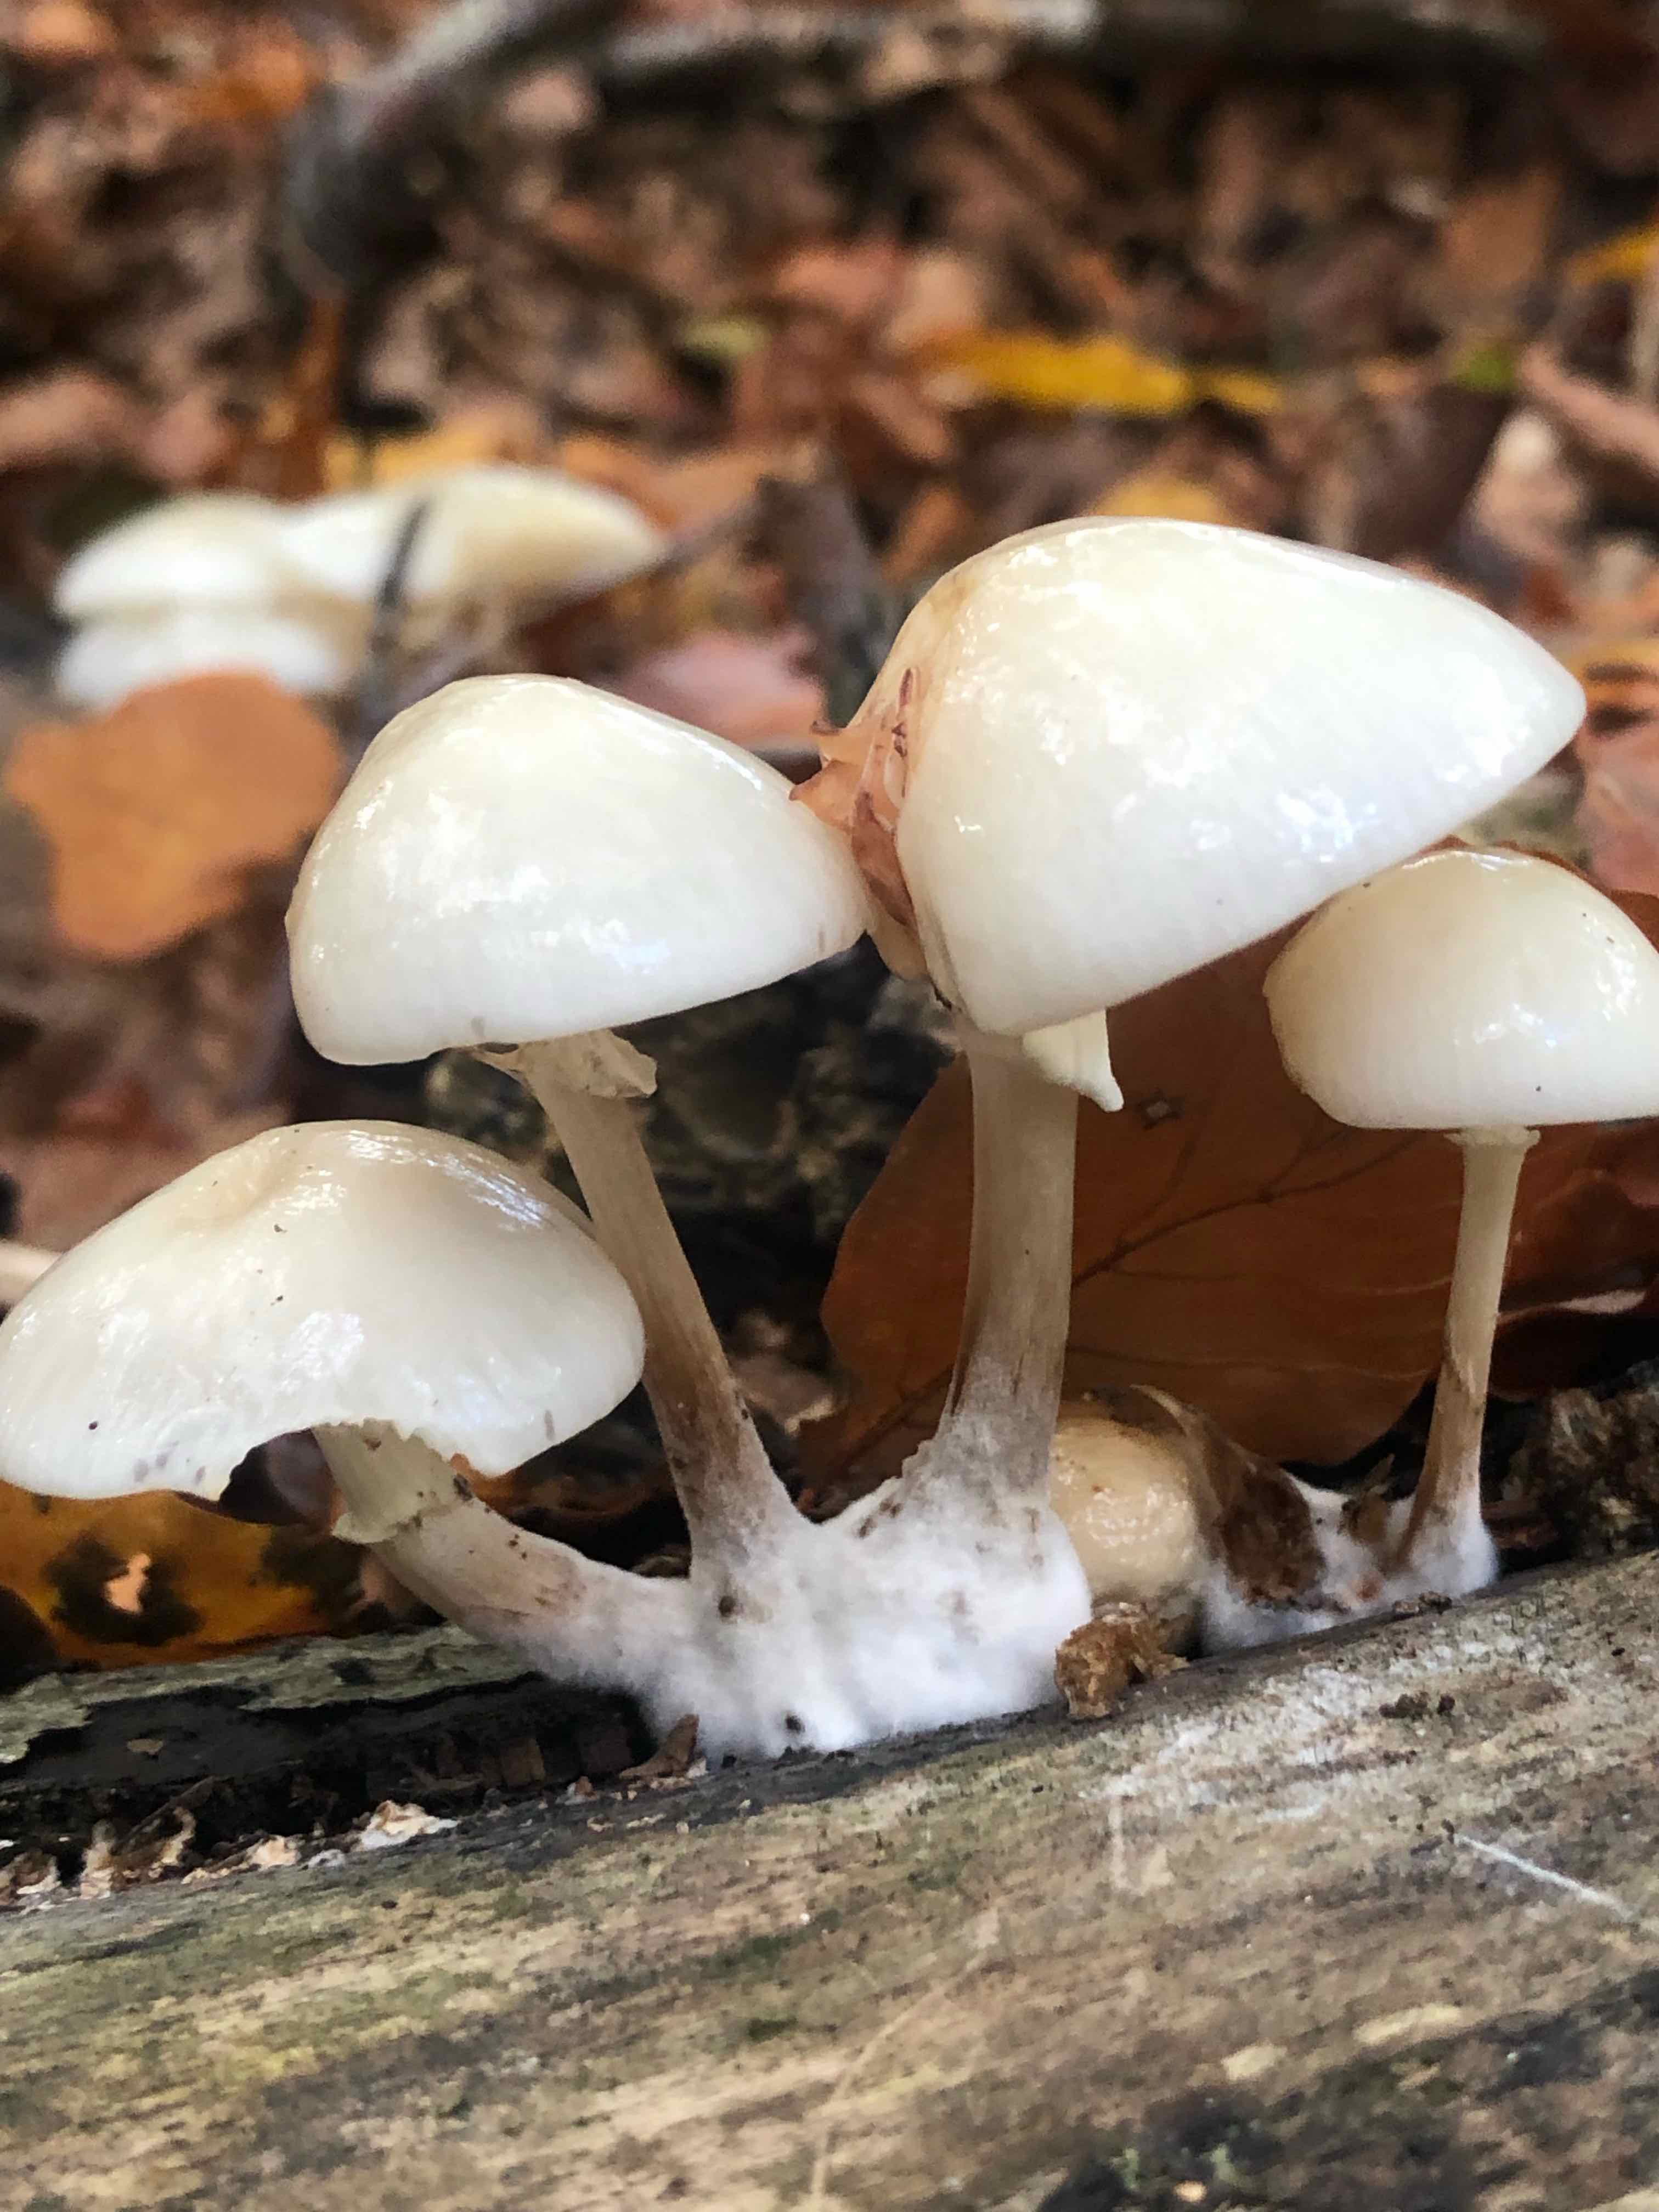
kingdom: Fungi
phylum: Basidiomycota
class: Agaricomycetes
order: Agaricales
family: Physalacriaceae
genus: Mucidula
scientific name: Mucidula mucida
